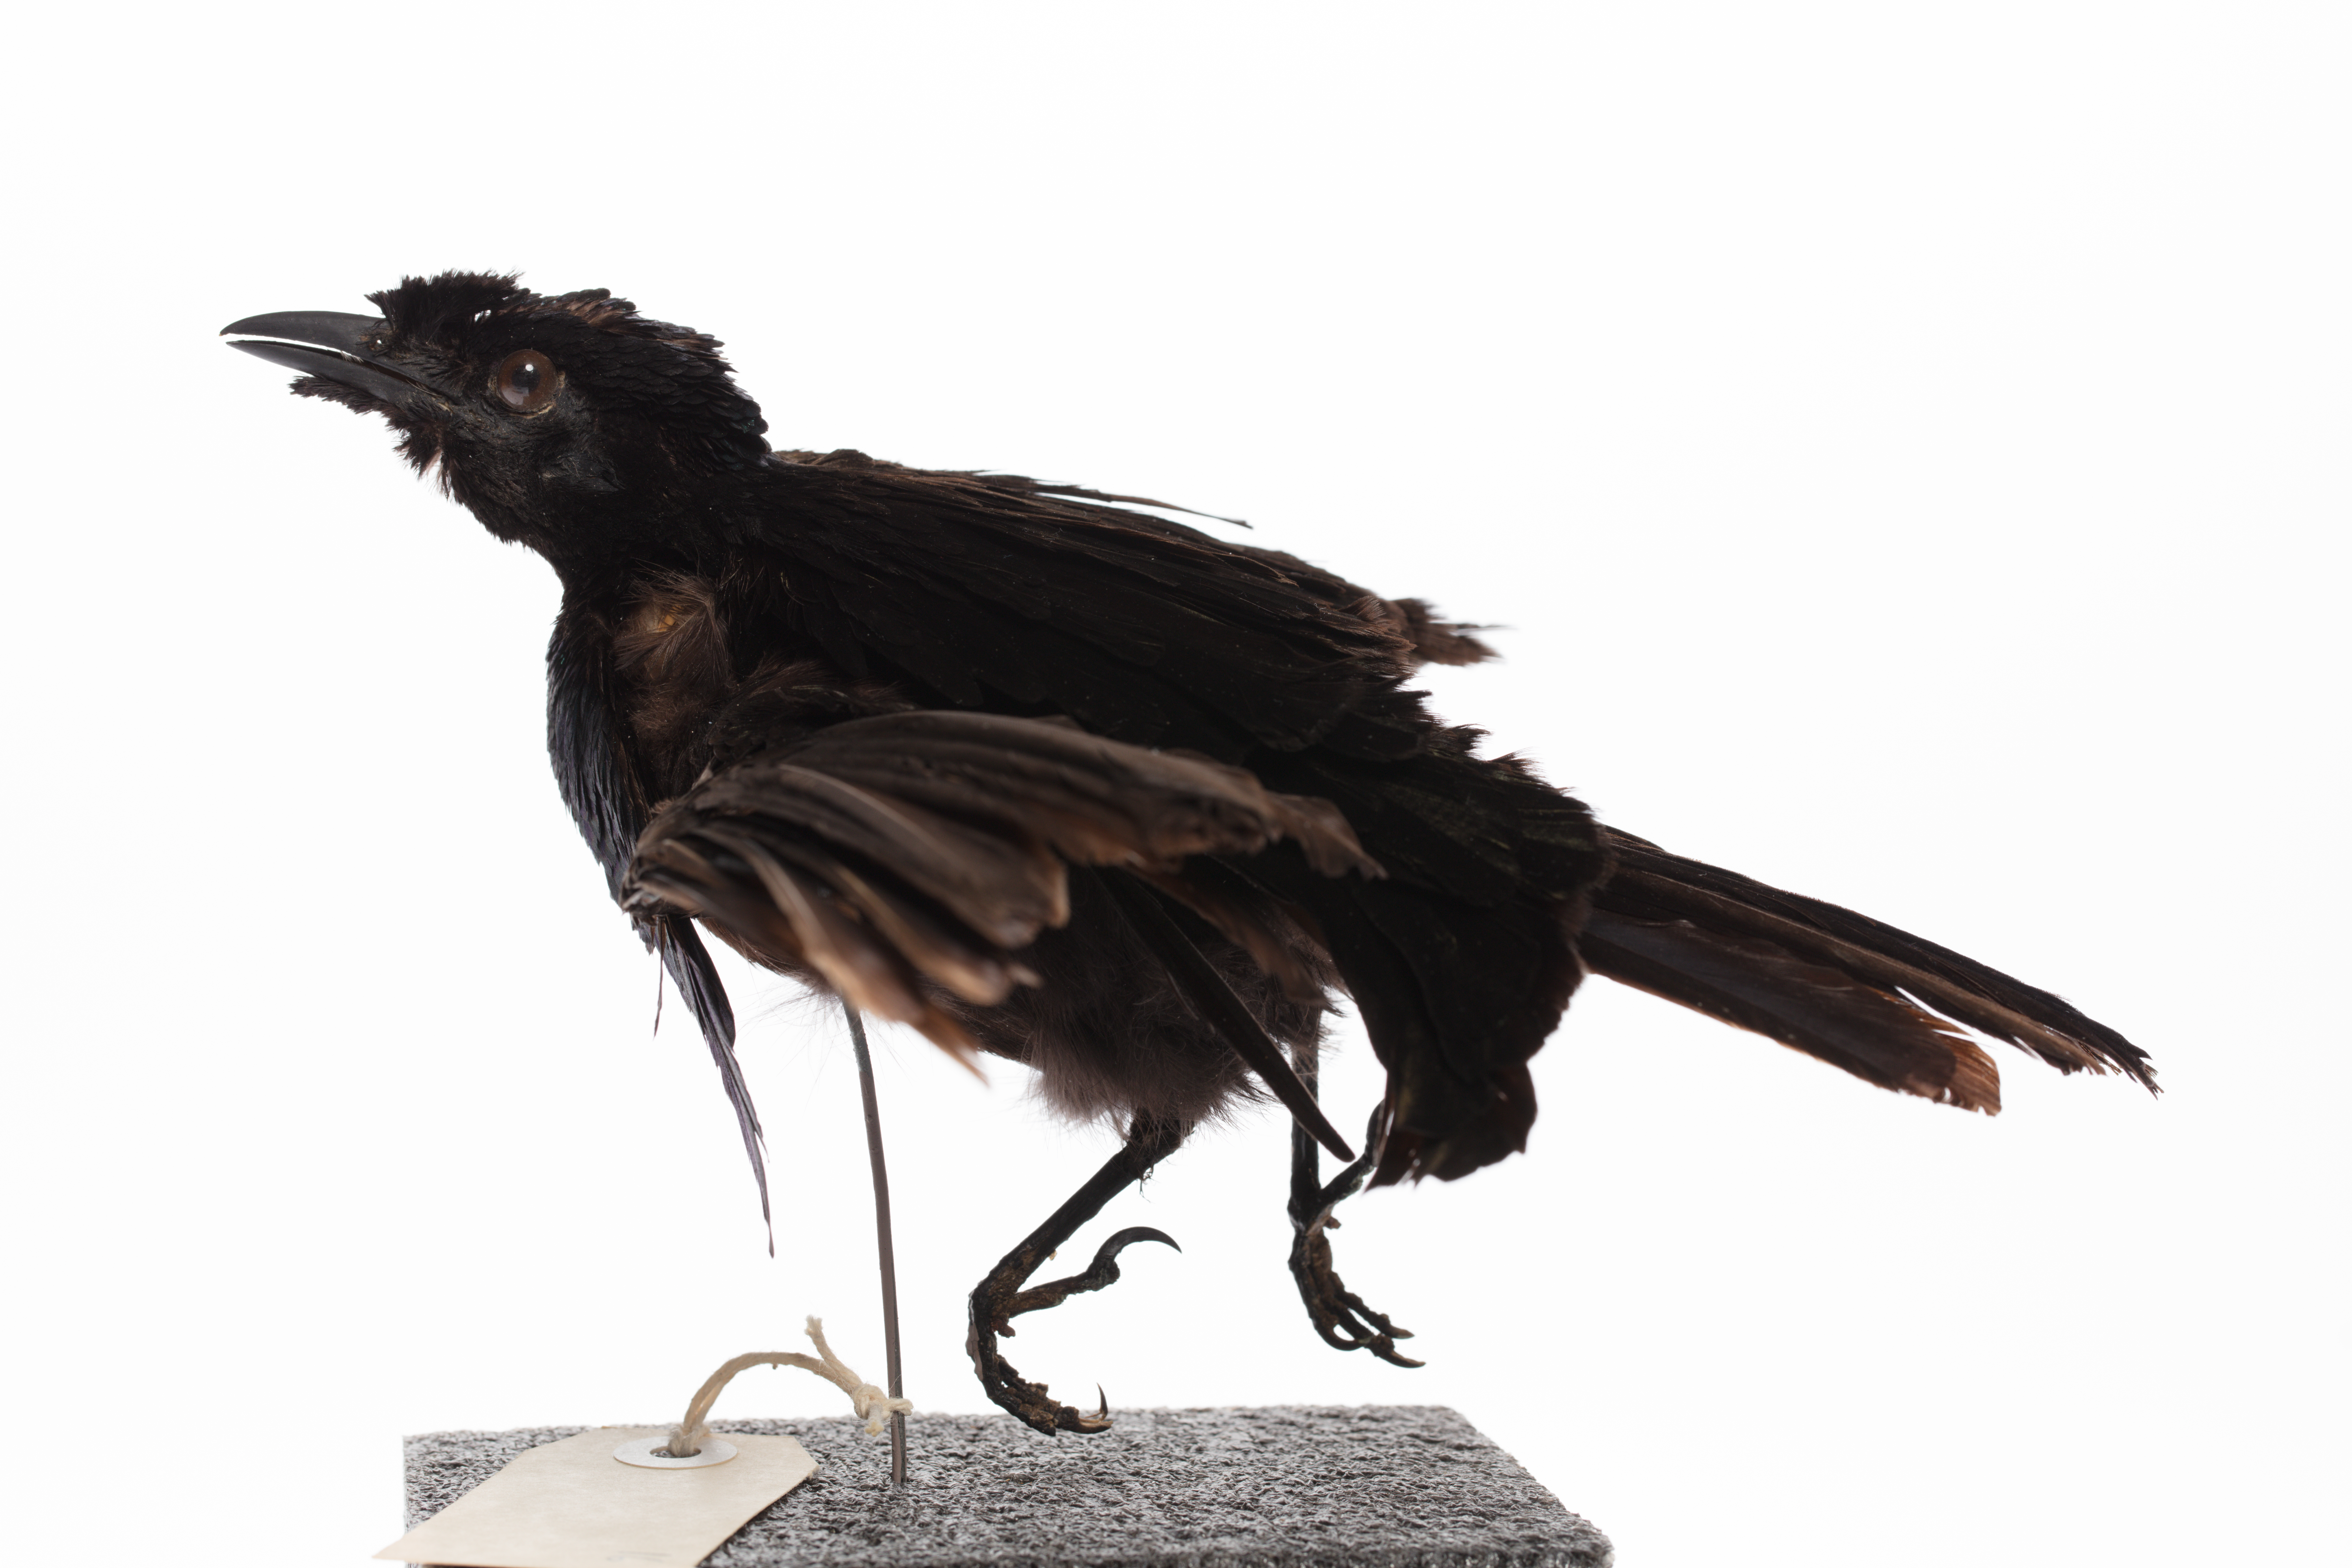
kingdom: Animalia
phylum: Chordata
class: Aves
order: Passeriformes
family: Paradisaeidae
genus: Lophorina
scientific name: Lophorina superba
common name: Superb bird-of-paradise
